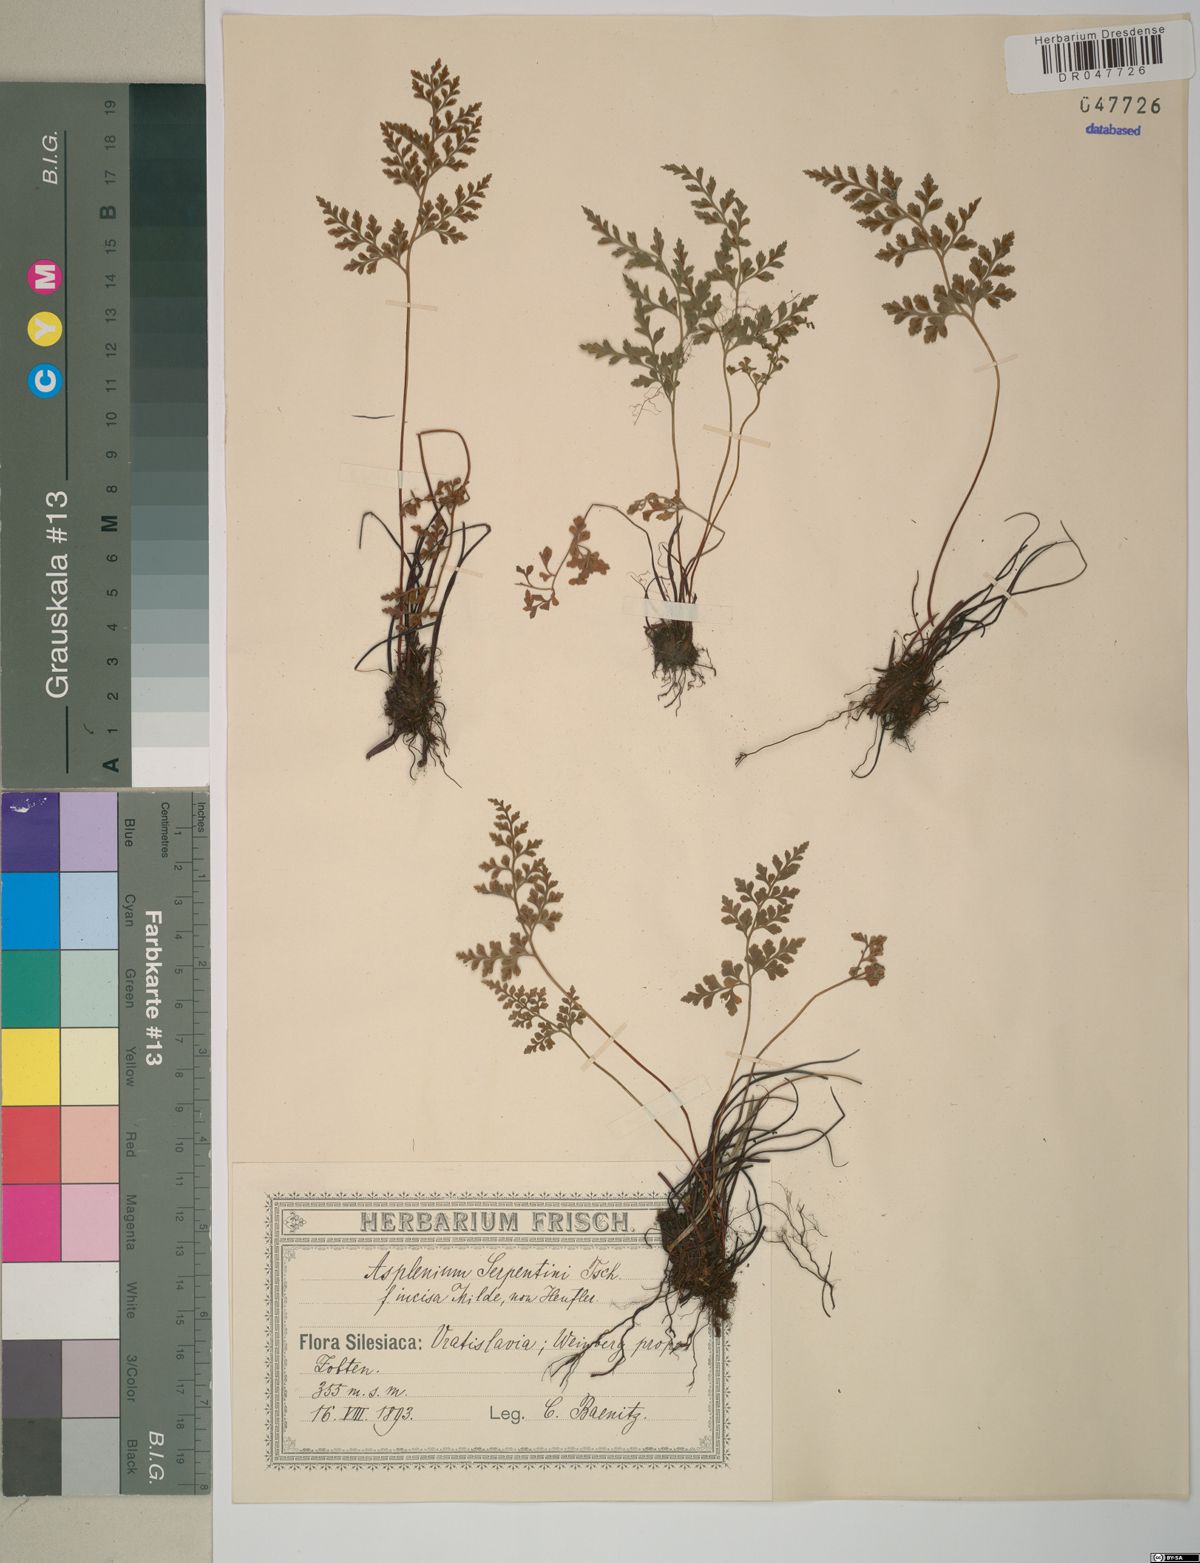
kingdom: Plantae
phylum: Tracheophyta
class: Polypodiopsida
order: Polypodiales
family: Aspleniaceae
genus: Asplenium
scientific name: Asplenium cuneifolium
